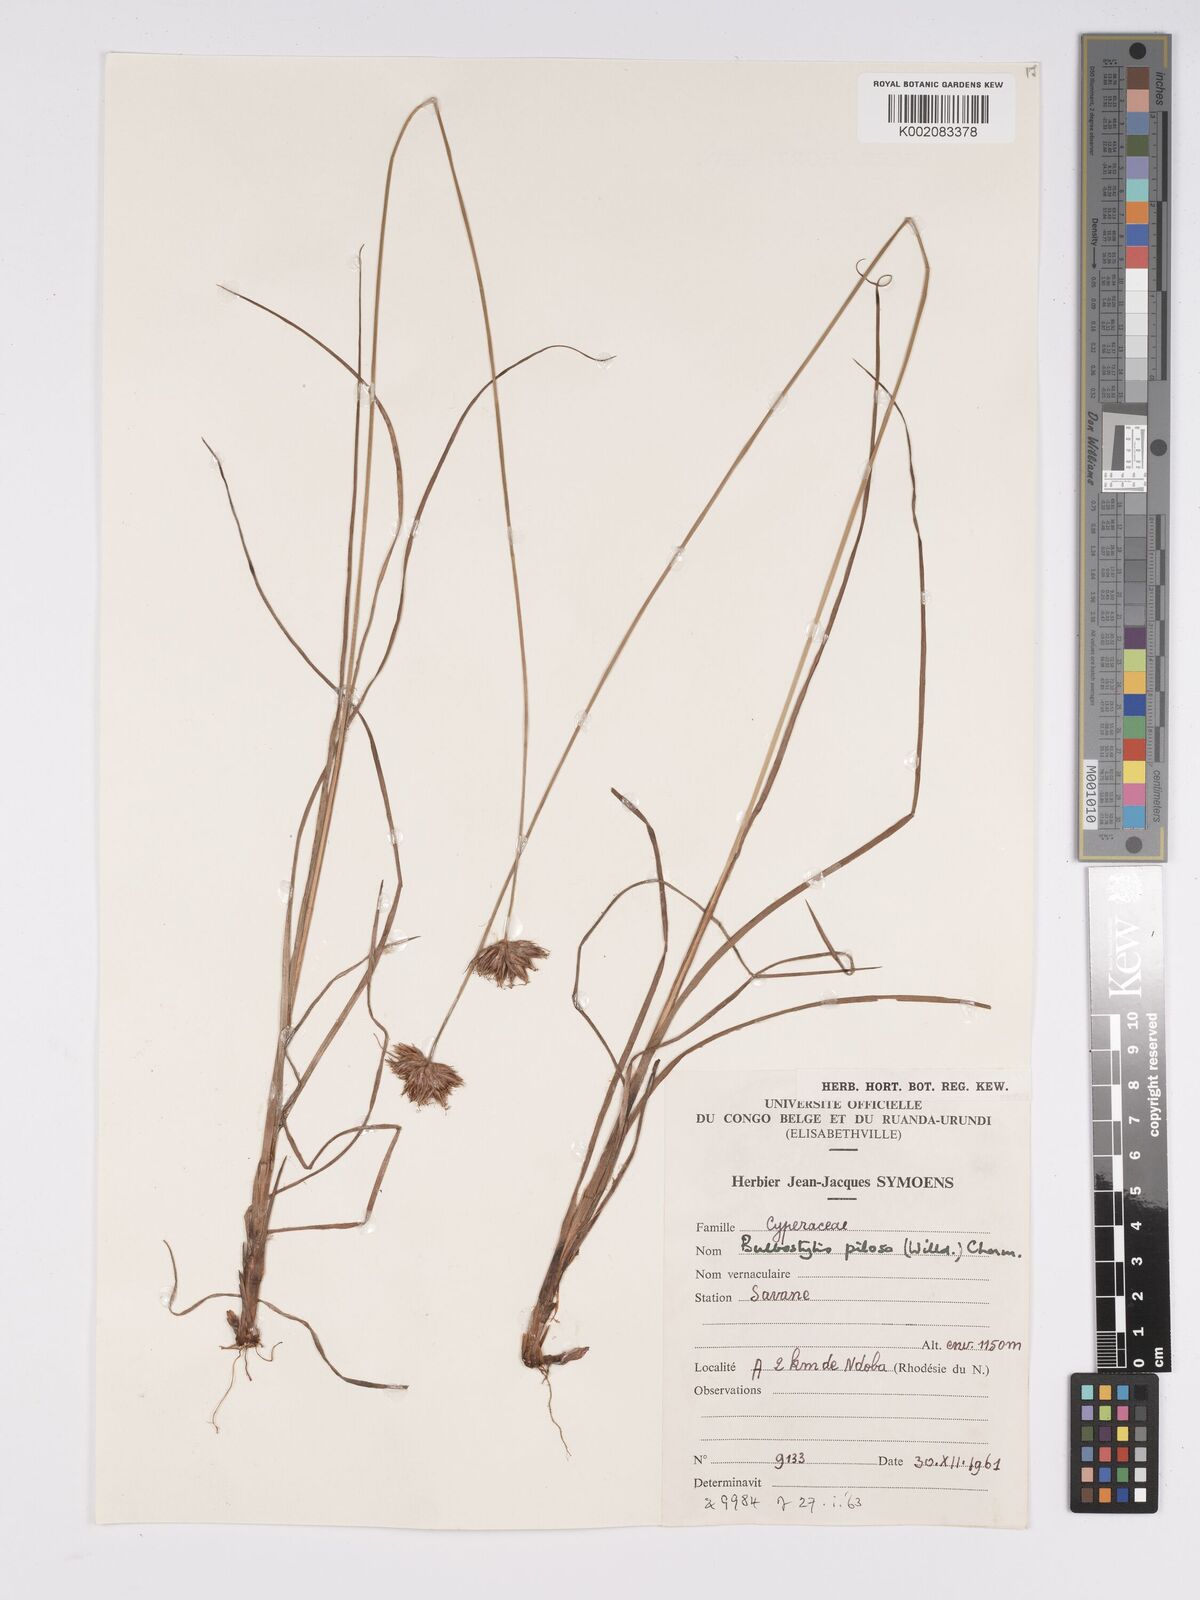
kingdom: Plantae
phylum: Tracheophyta
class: Liliopsida
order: Poales
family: Cyperaceae
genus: Bulbostylis
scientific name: Bulbostylis pilosa
